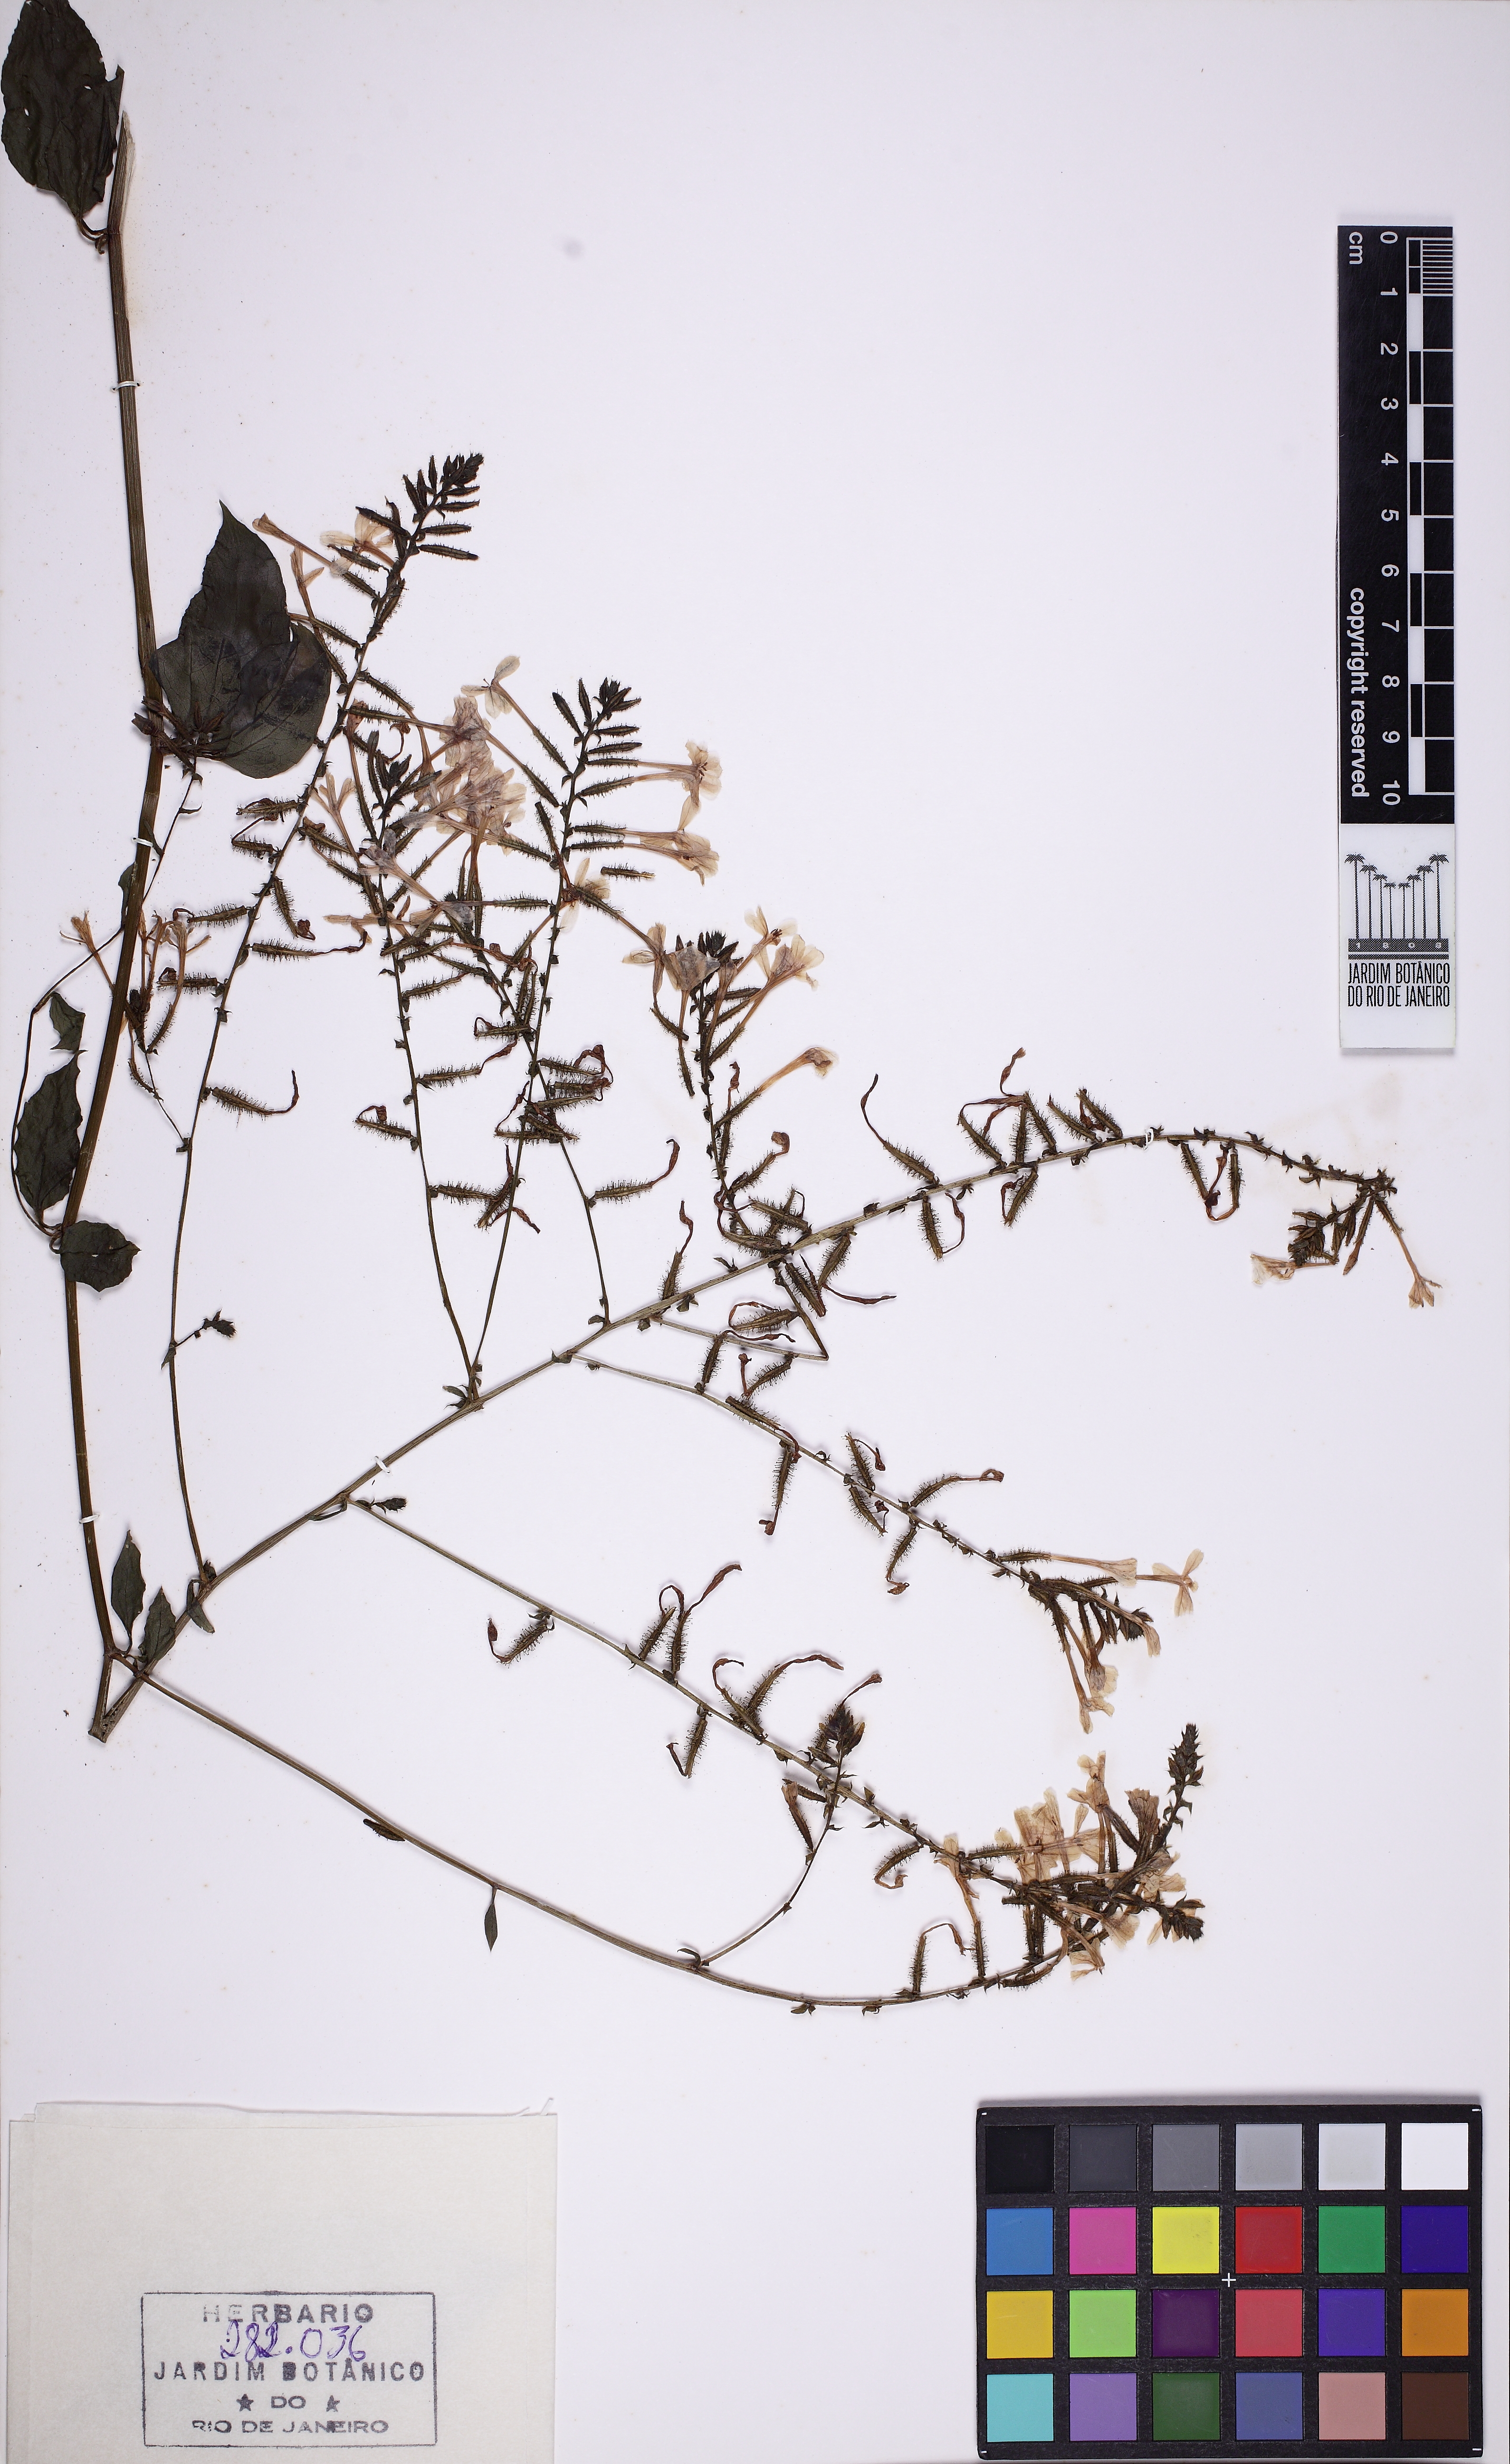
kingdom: Plantae
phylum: Tracheophyta
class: Magnoliopsida
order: Caryophyllales
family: Plumbaginaceae
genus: Plumbago
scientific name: Plumbago zeylanica
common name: Doctorbush
